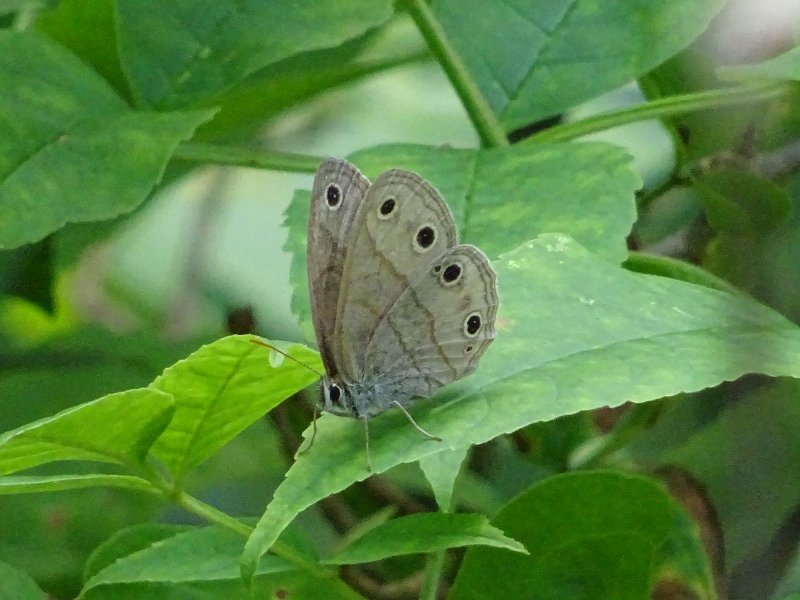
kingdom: Animalia
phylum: Arthropoda
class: Insecta
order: Lepidoptera
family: Nymphalidae
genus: Euptychia
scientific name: Euptychia cymela
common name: Little Wood Satyr
